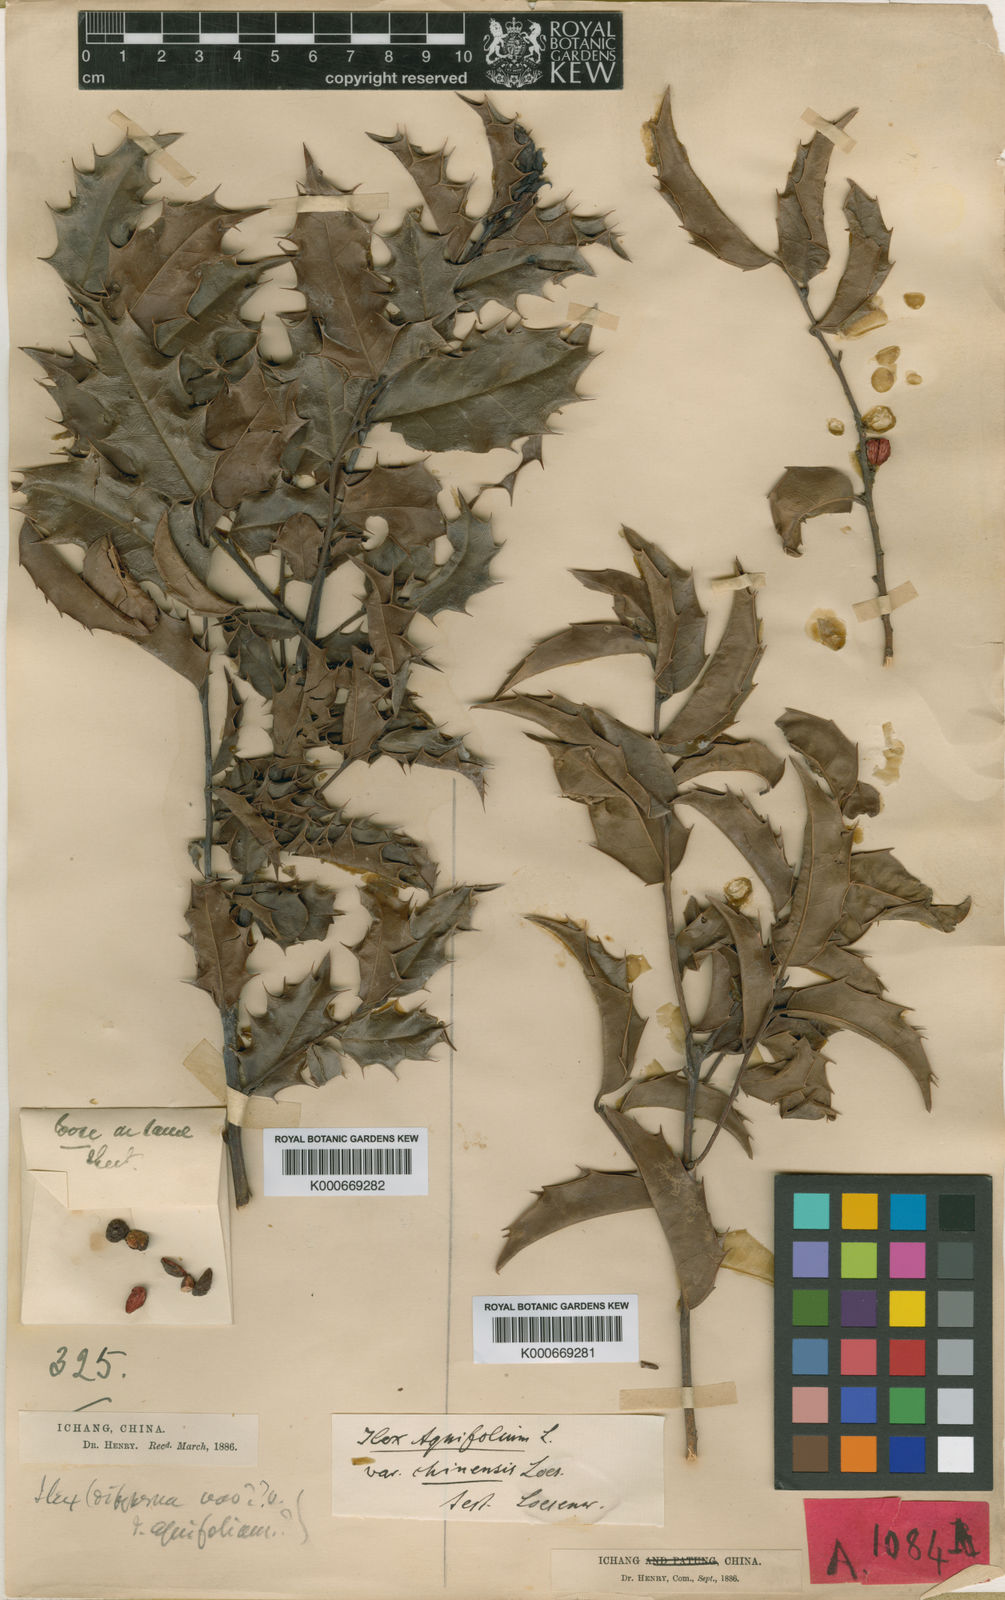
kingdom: Plantae
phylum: Tracheophyta
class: Magnoliopsida
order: Aquifoliales
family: Aquifoliaceae
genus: Ilex
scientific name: Ilex centrochinensis
